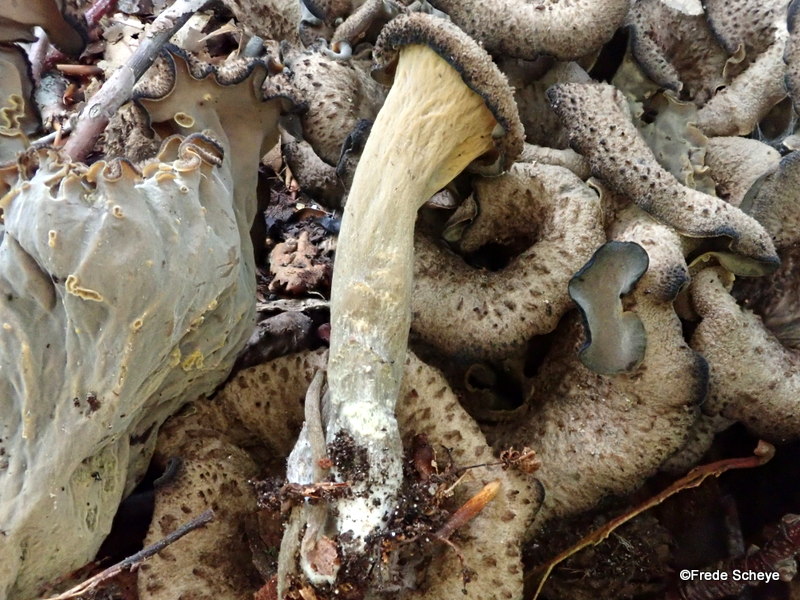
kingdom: Fungi
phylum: Basidiomycota
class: Agaricomycetes
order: Cantharellales
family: Hydnaceae
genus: Craterellus
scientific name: Craterellus cornucopioides
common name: trompetsvamp
